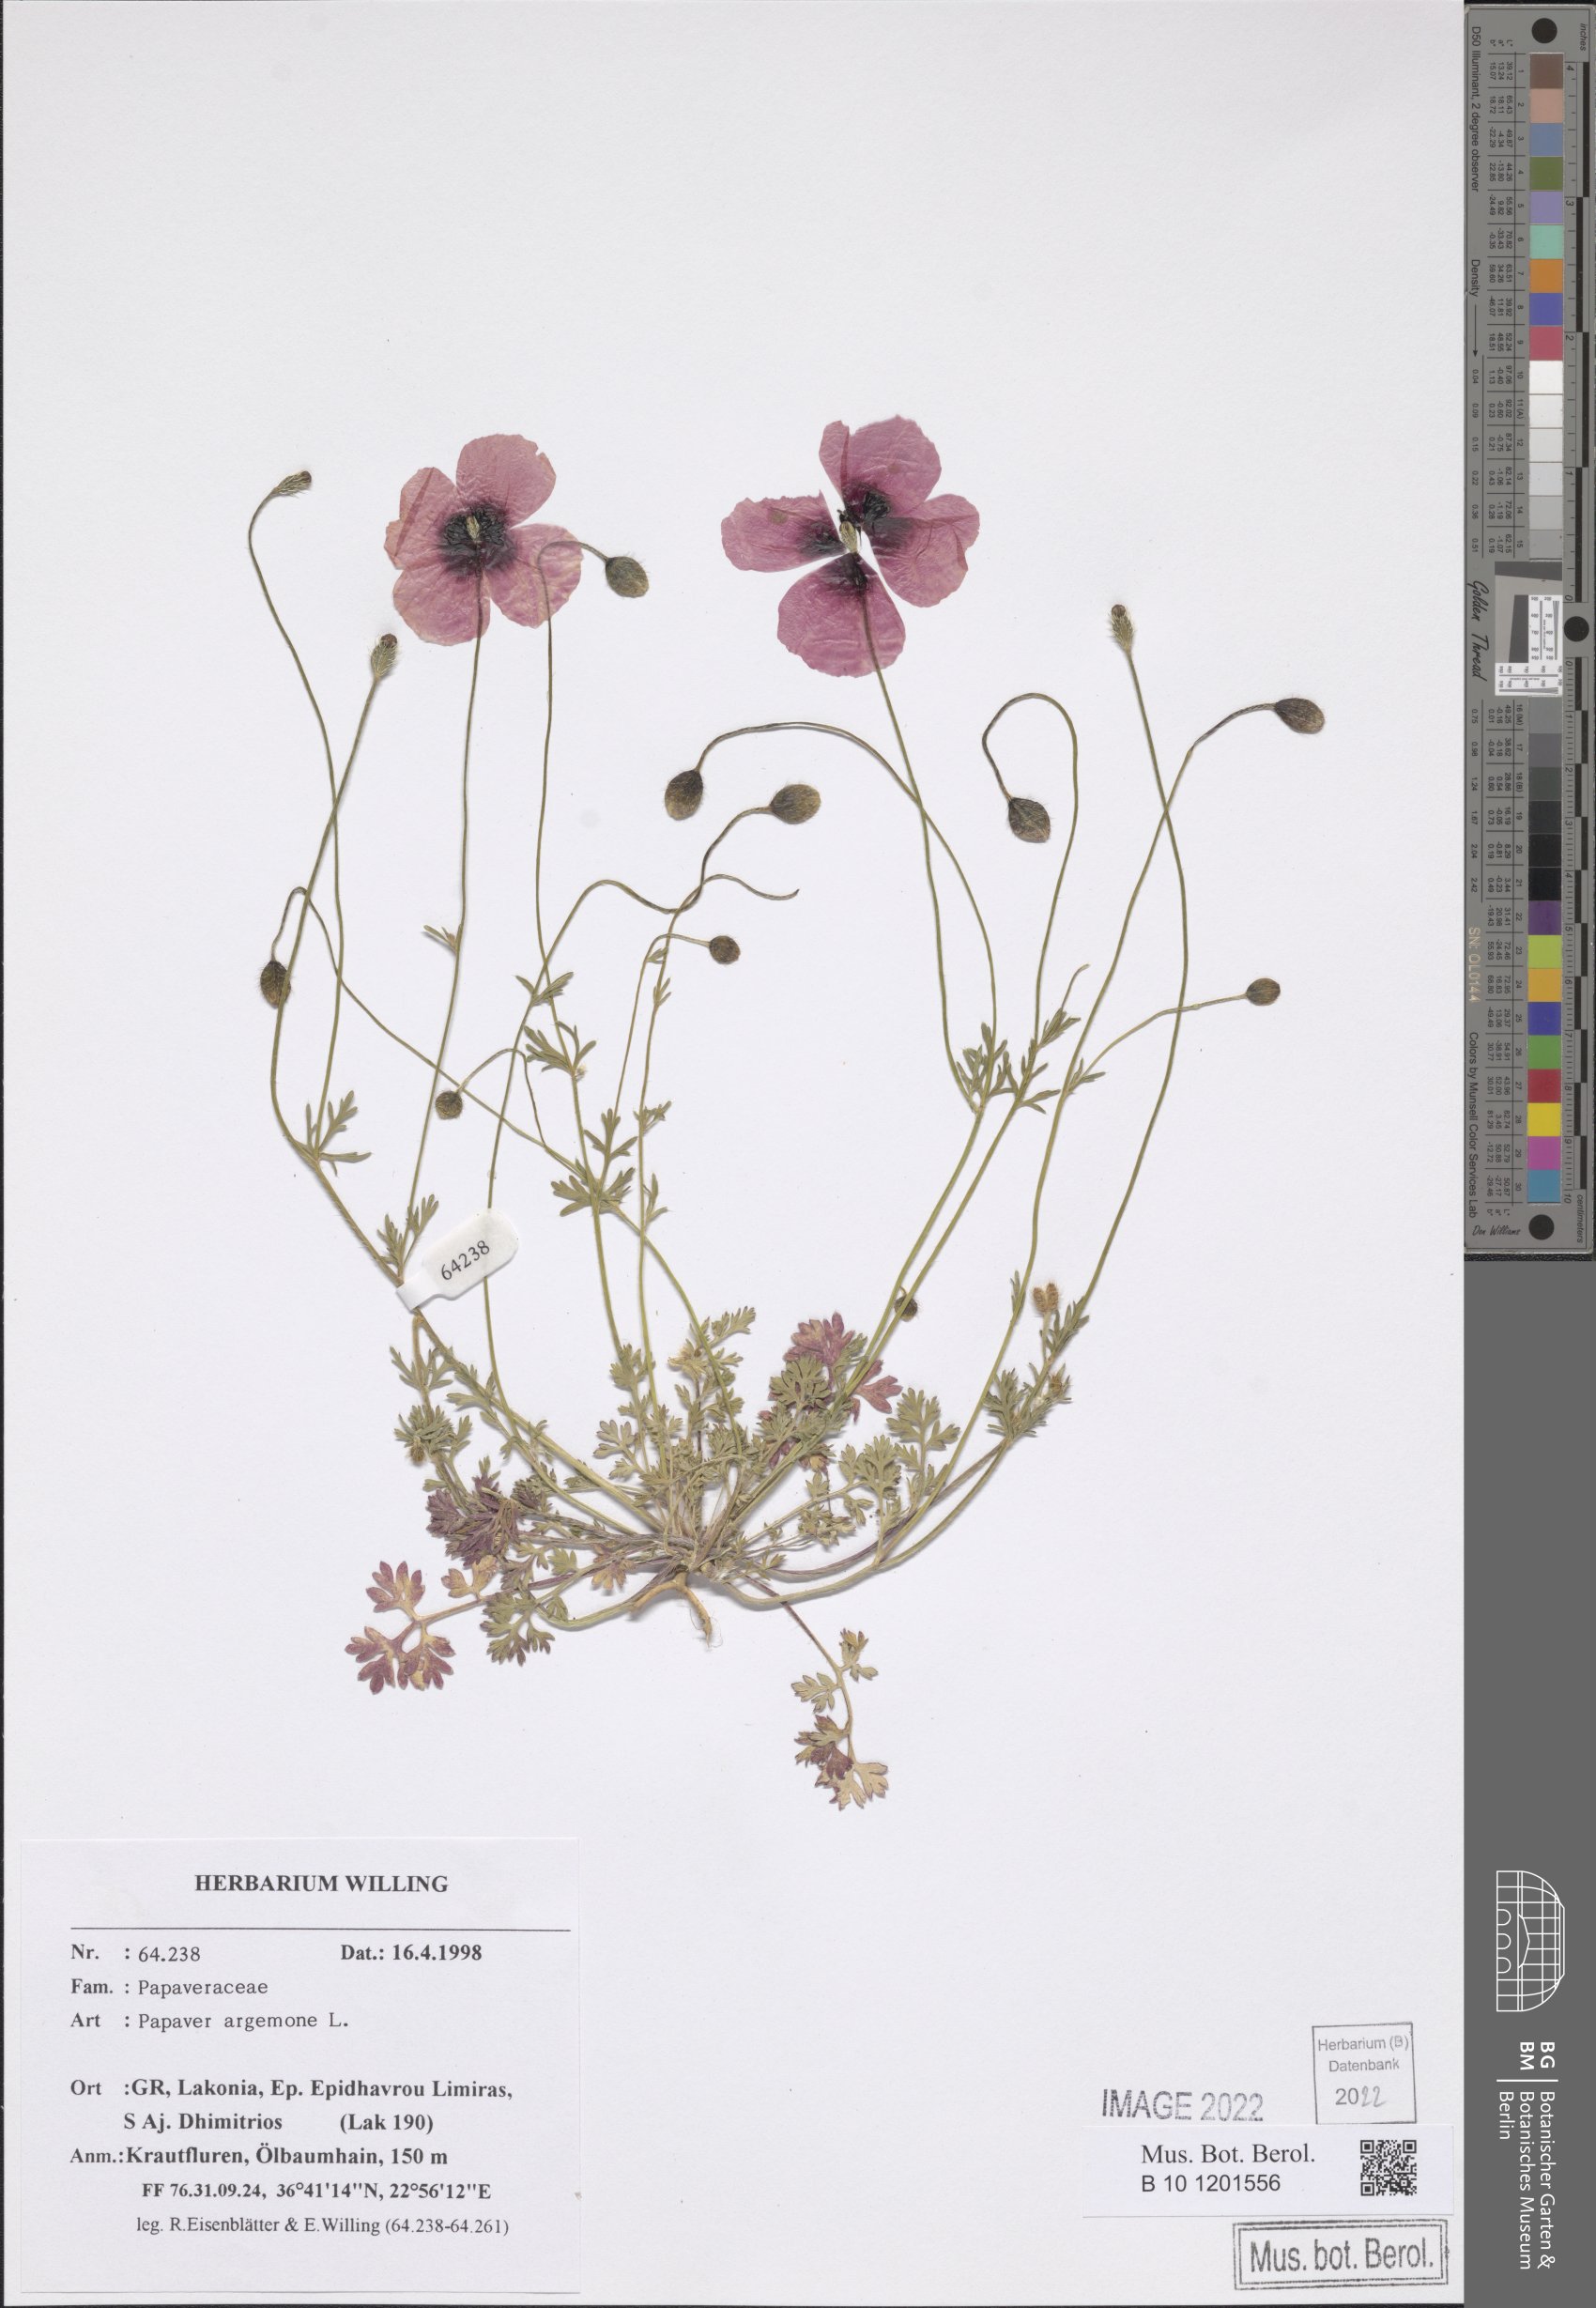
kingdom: Plantae
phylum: Tracheophyta
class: Magnoliopsida
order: Ranunculales
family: Papaveraceae
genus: Roemeria
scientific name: Roemeria argemone
